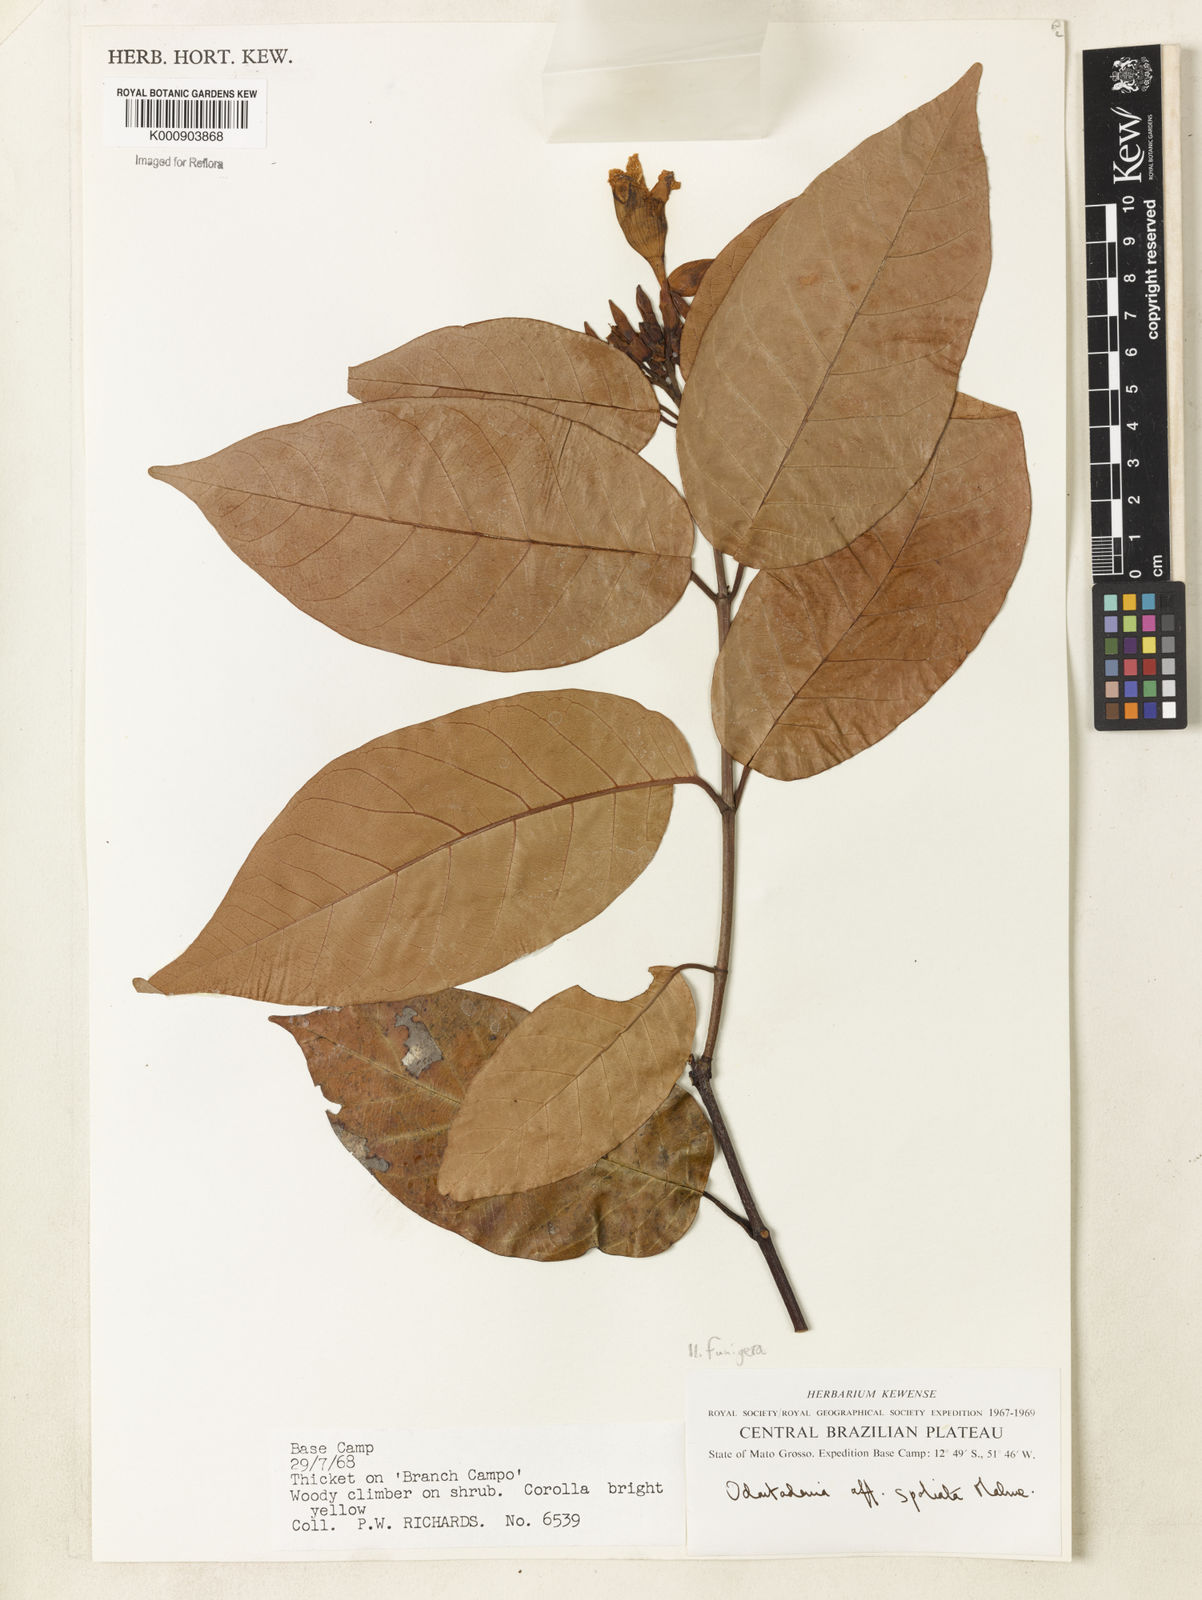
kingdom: Plantae
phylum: Tracheophyta
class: Magnoliopsida
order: Gentianales
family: Apocynaceae
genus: Odontadenia
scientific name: Odontadenia funigera
